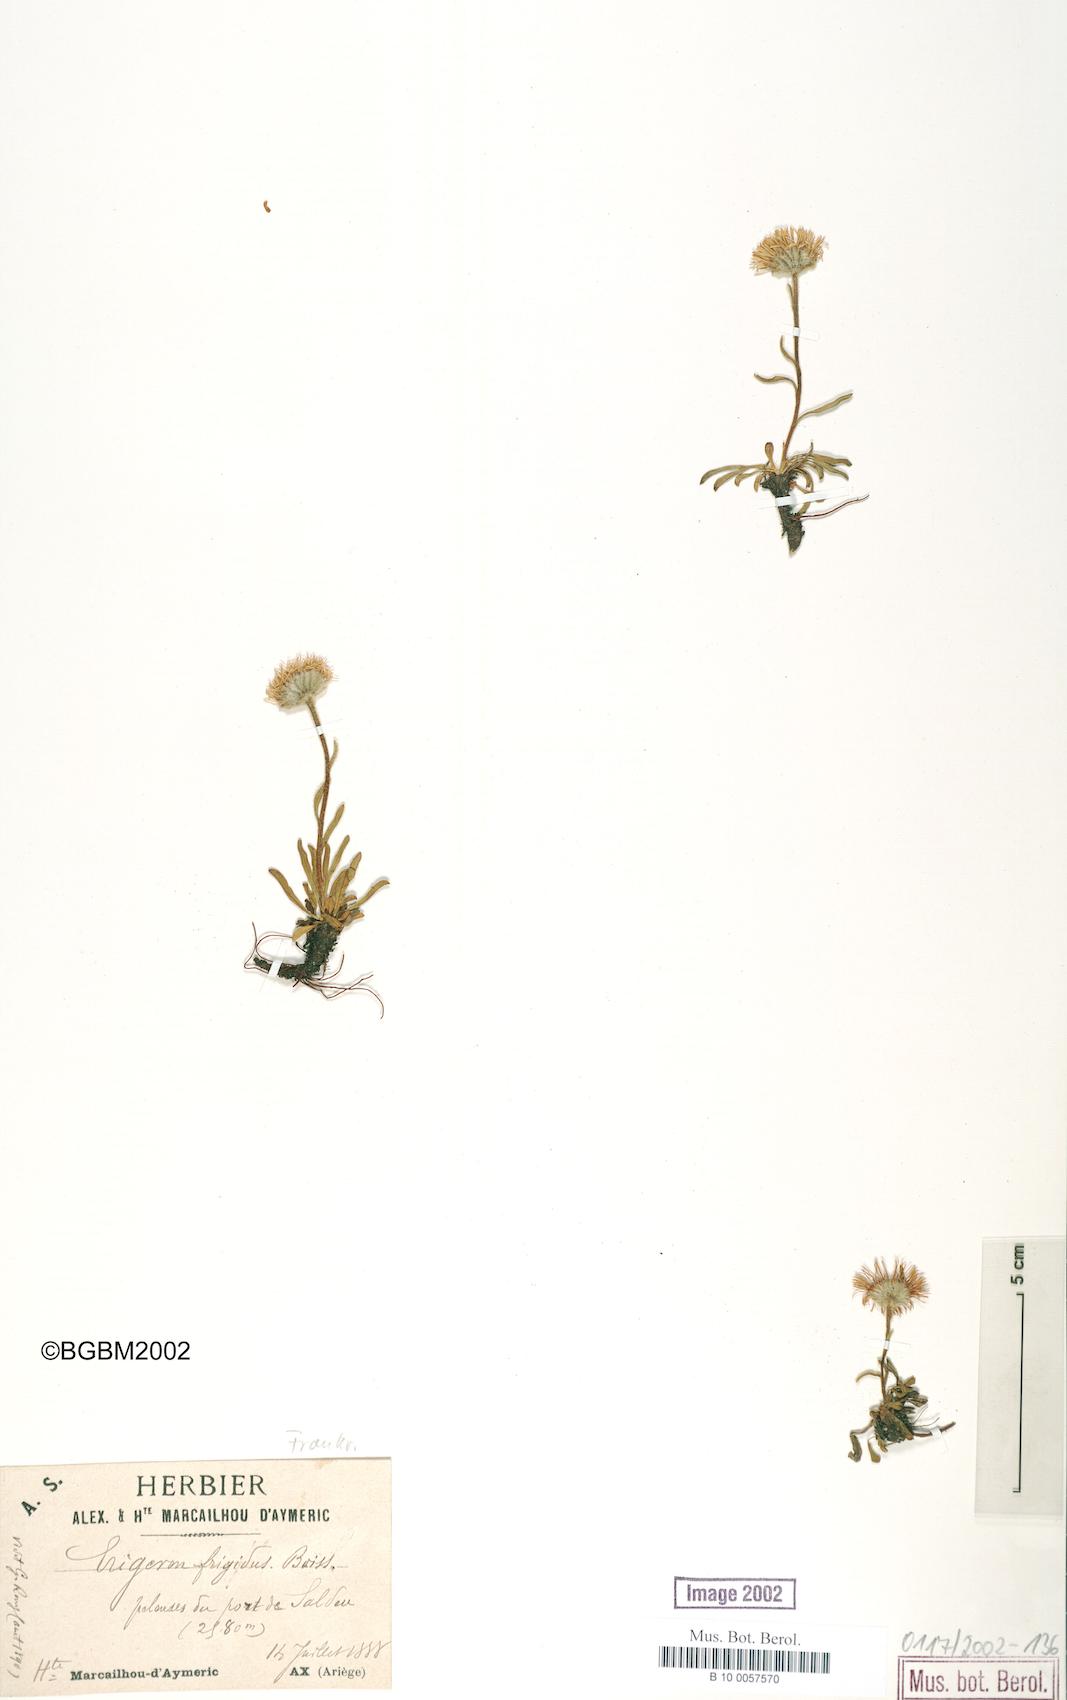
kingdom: Plantae
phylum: Tracheophyta
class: Magnoliopsida
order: Asterales
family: Asteraceae
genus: Erigeron
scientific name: Erigeron aragonensis
